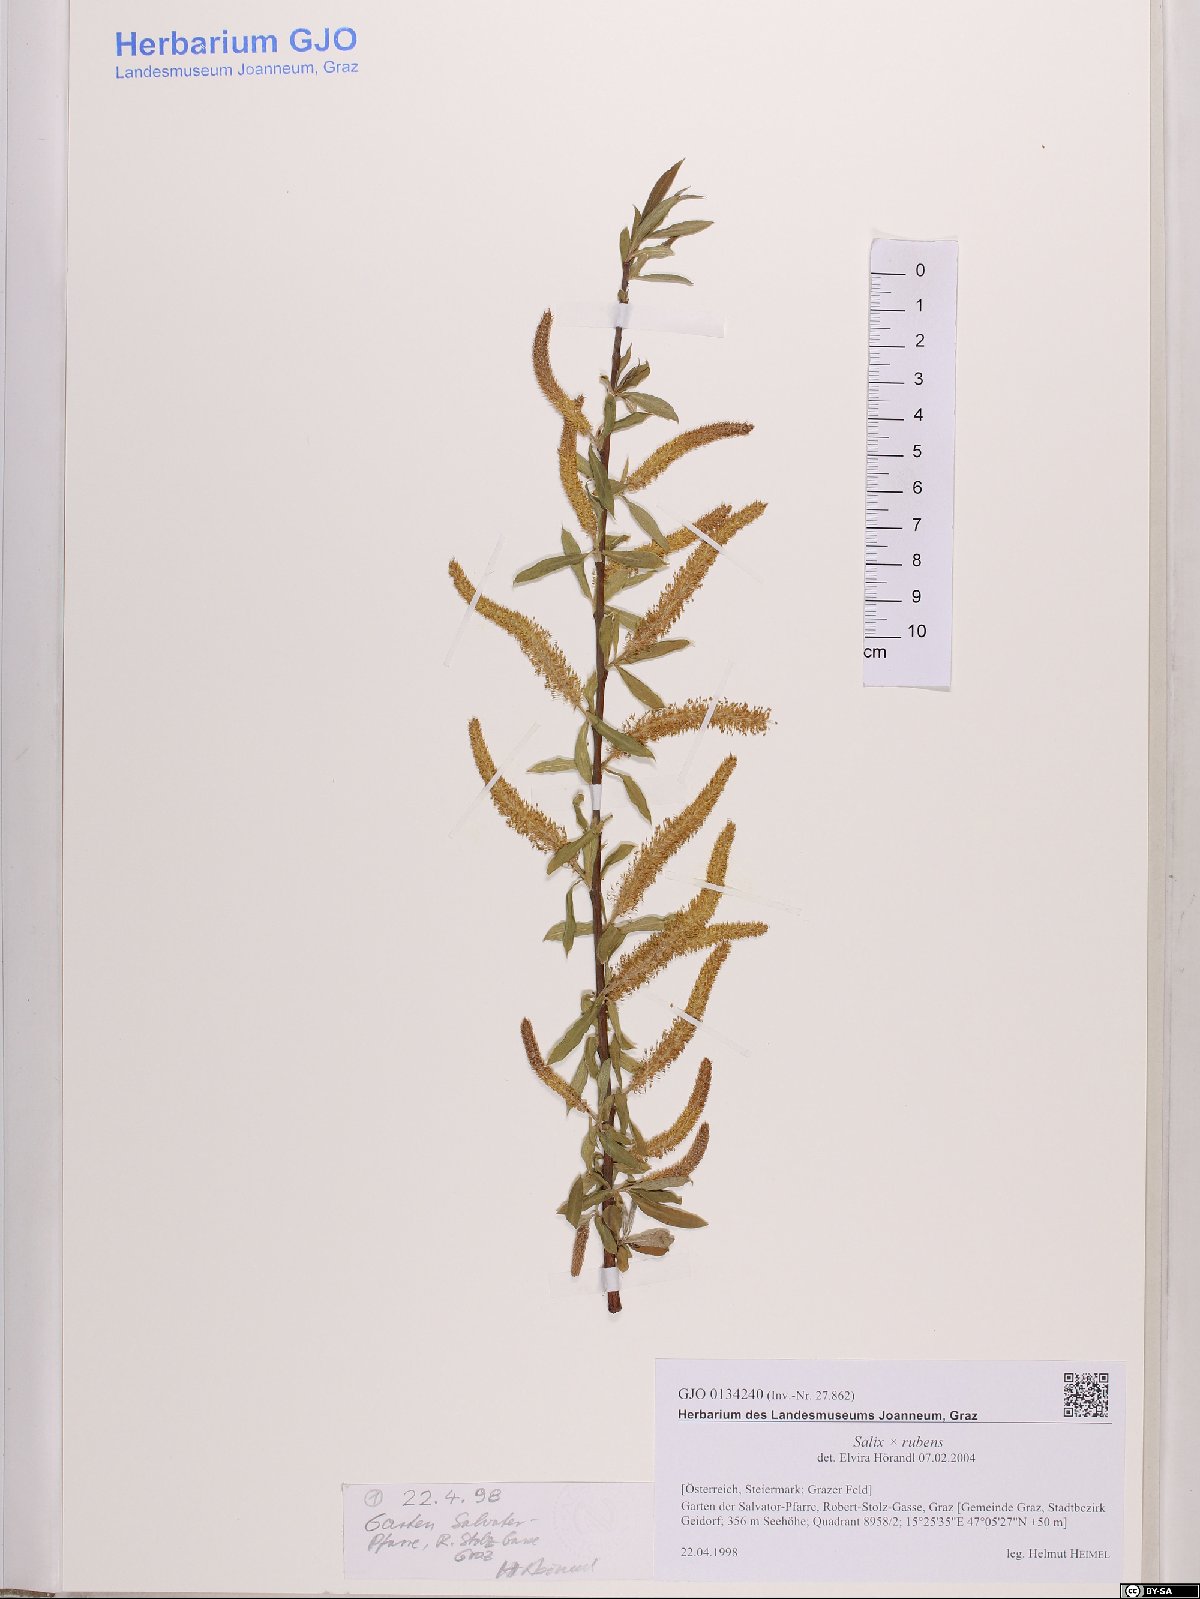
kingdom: Plantae
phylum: Tracheophyta
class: Magnoliopsida
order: Malpighiales
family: Salicaceae
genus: Salix
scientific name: Salix rubens
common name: Hybrid crack willow
